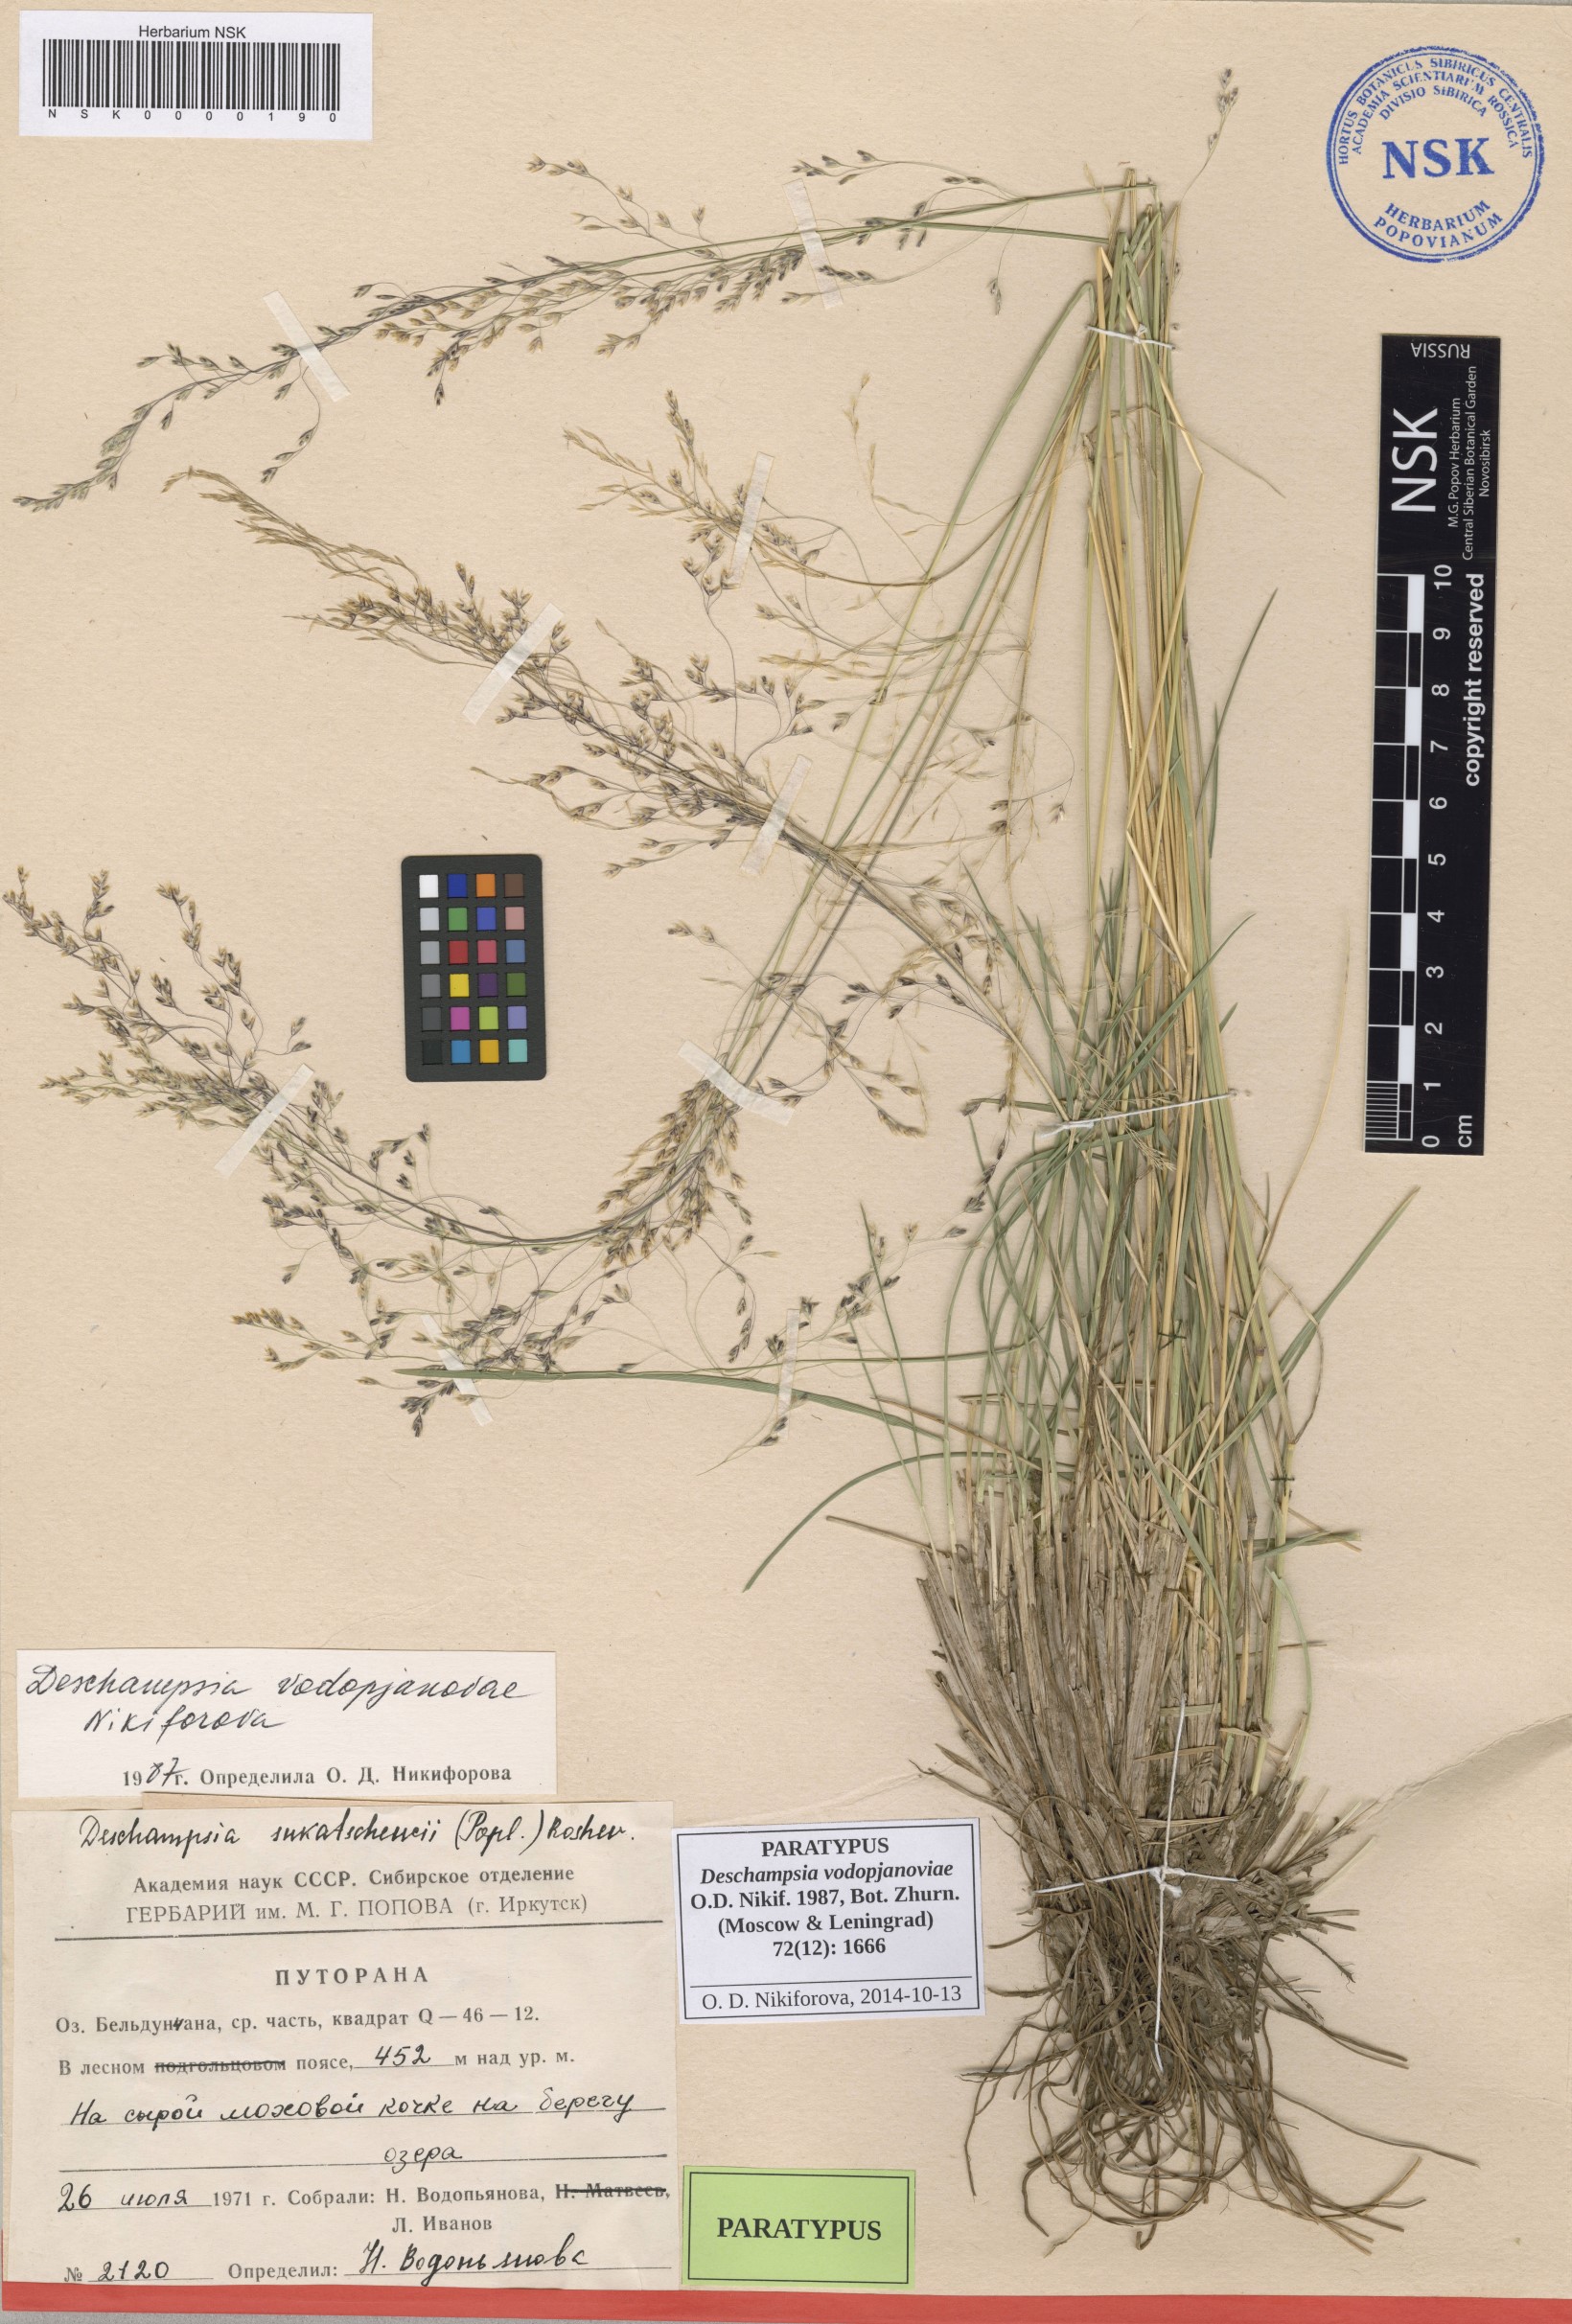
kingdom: Plantae
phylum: Tracheophyta
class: Liliopsida
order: Poales
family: Poaceae
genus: Deschampsia
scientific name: Deschampsia cespitosa
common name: Tufted hair-grass
